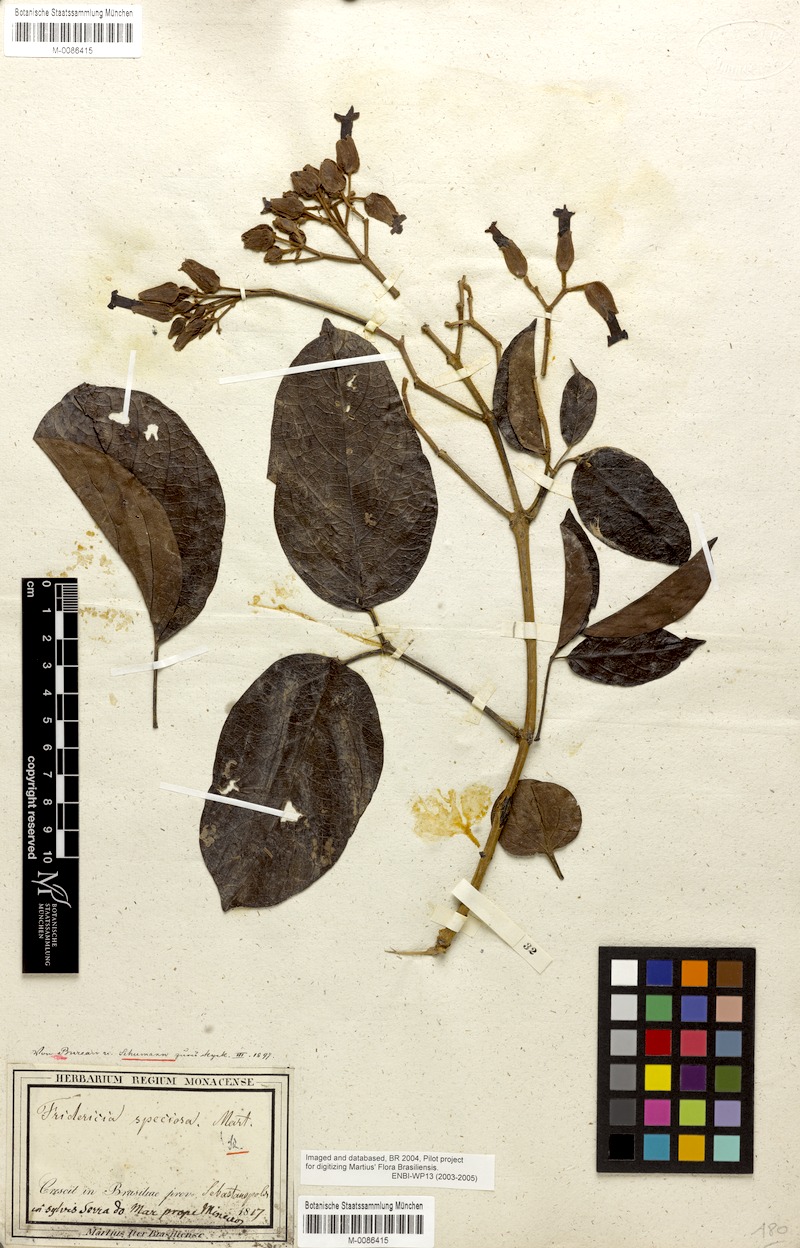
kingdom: Plantae
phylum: Tracheophyta
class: Magnoliopsida
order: Lamiales
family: Bignoniaceae
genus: Fridericia
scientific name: Fridericia speciosa
